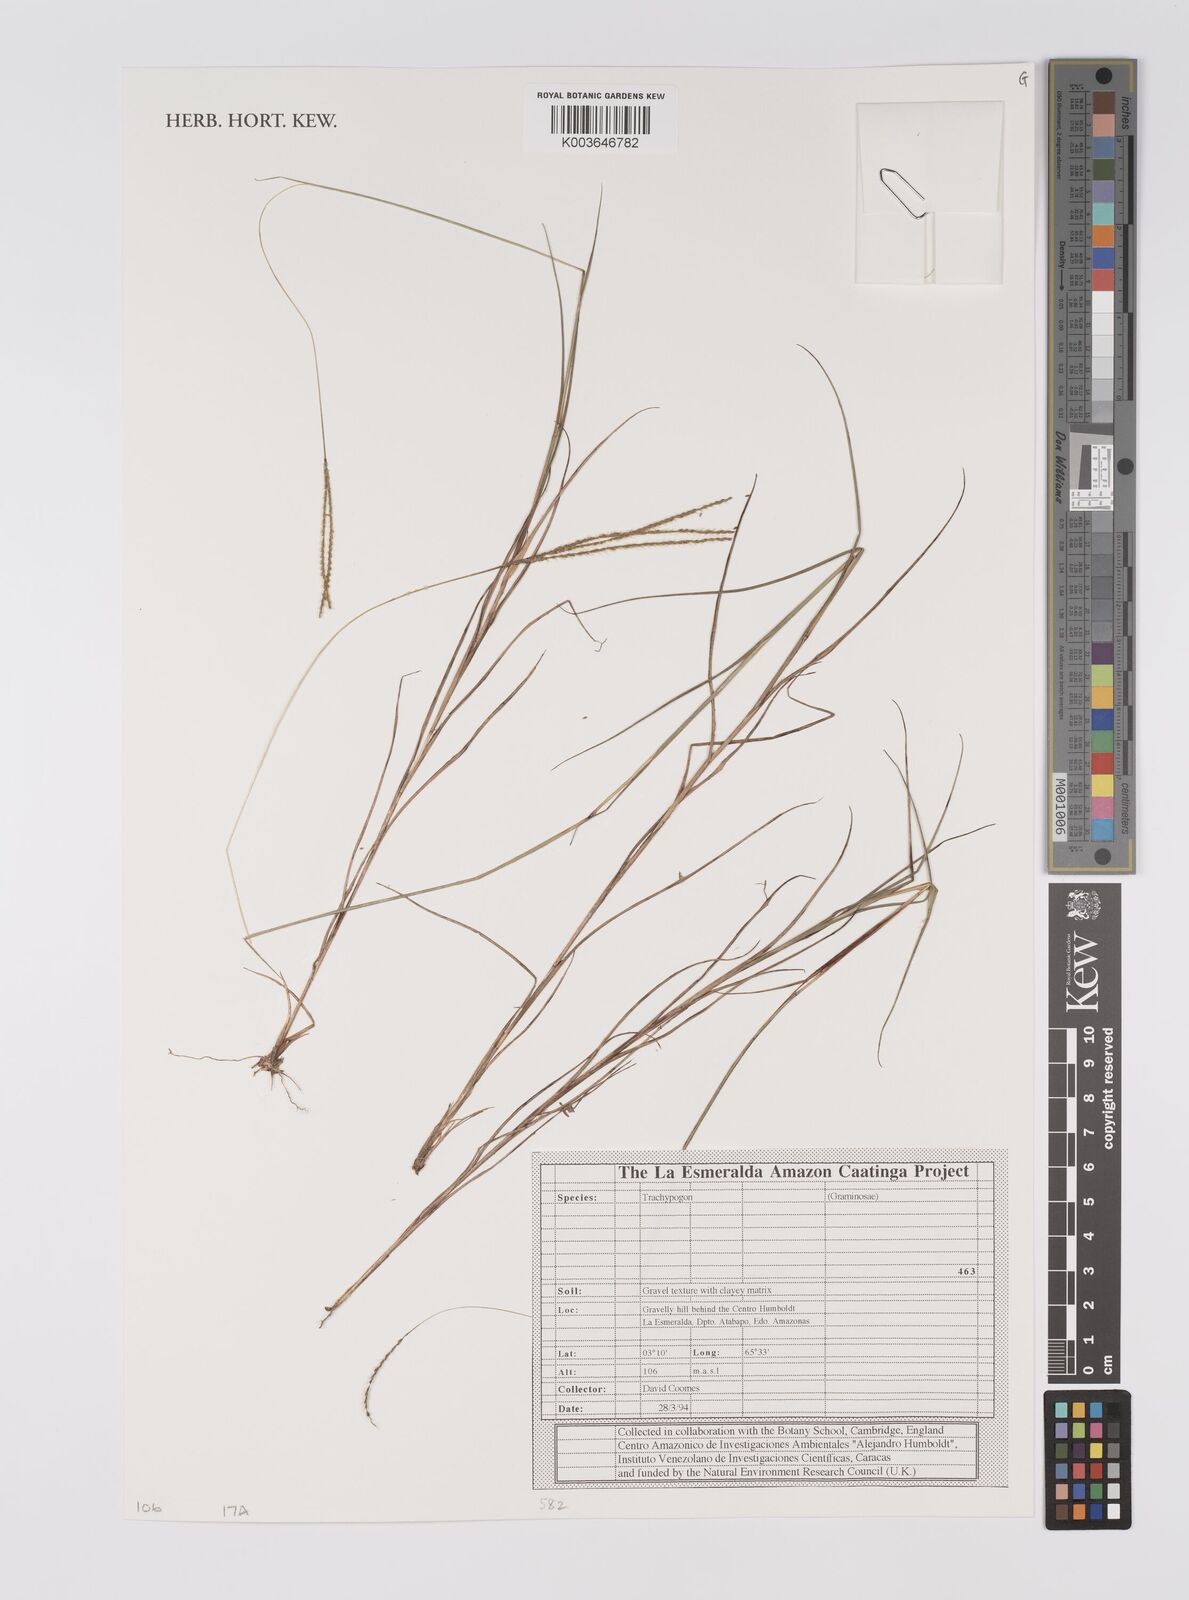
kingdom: Plantae
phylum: Tracheophyta
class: Liliopsida
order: Poales
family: Poaceae
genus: Trachypogon
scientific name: Trachypogon
